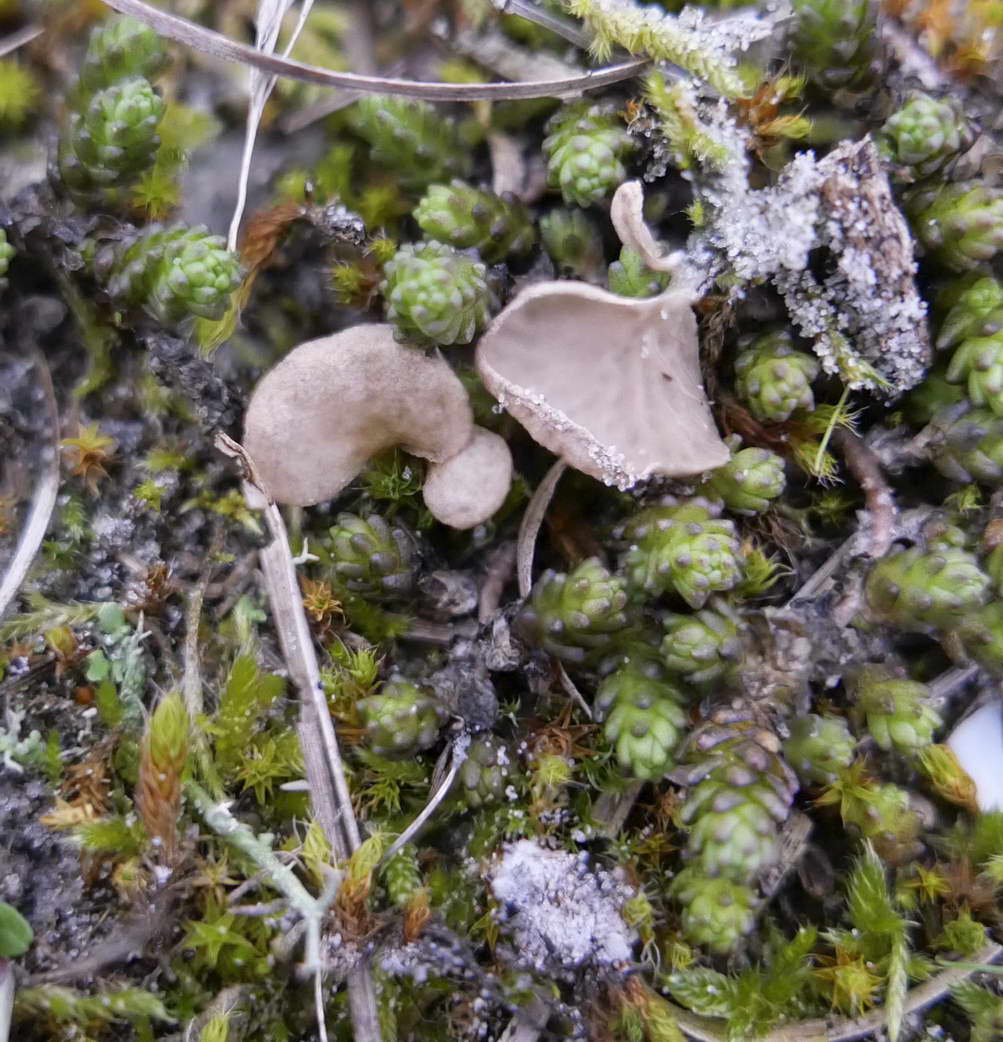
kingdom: Fungi
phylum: Basidiomycota
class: Agaricomycetes
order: Agaricales
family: Hygrophoraceae
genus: Arrhenia
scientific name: Arrhenia spathulata
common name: skæv fontænehat
